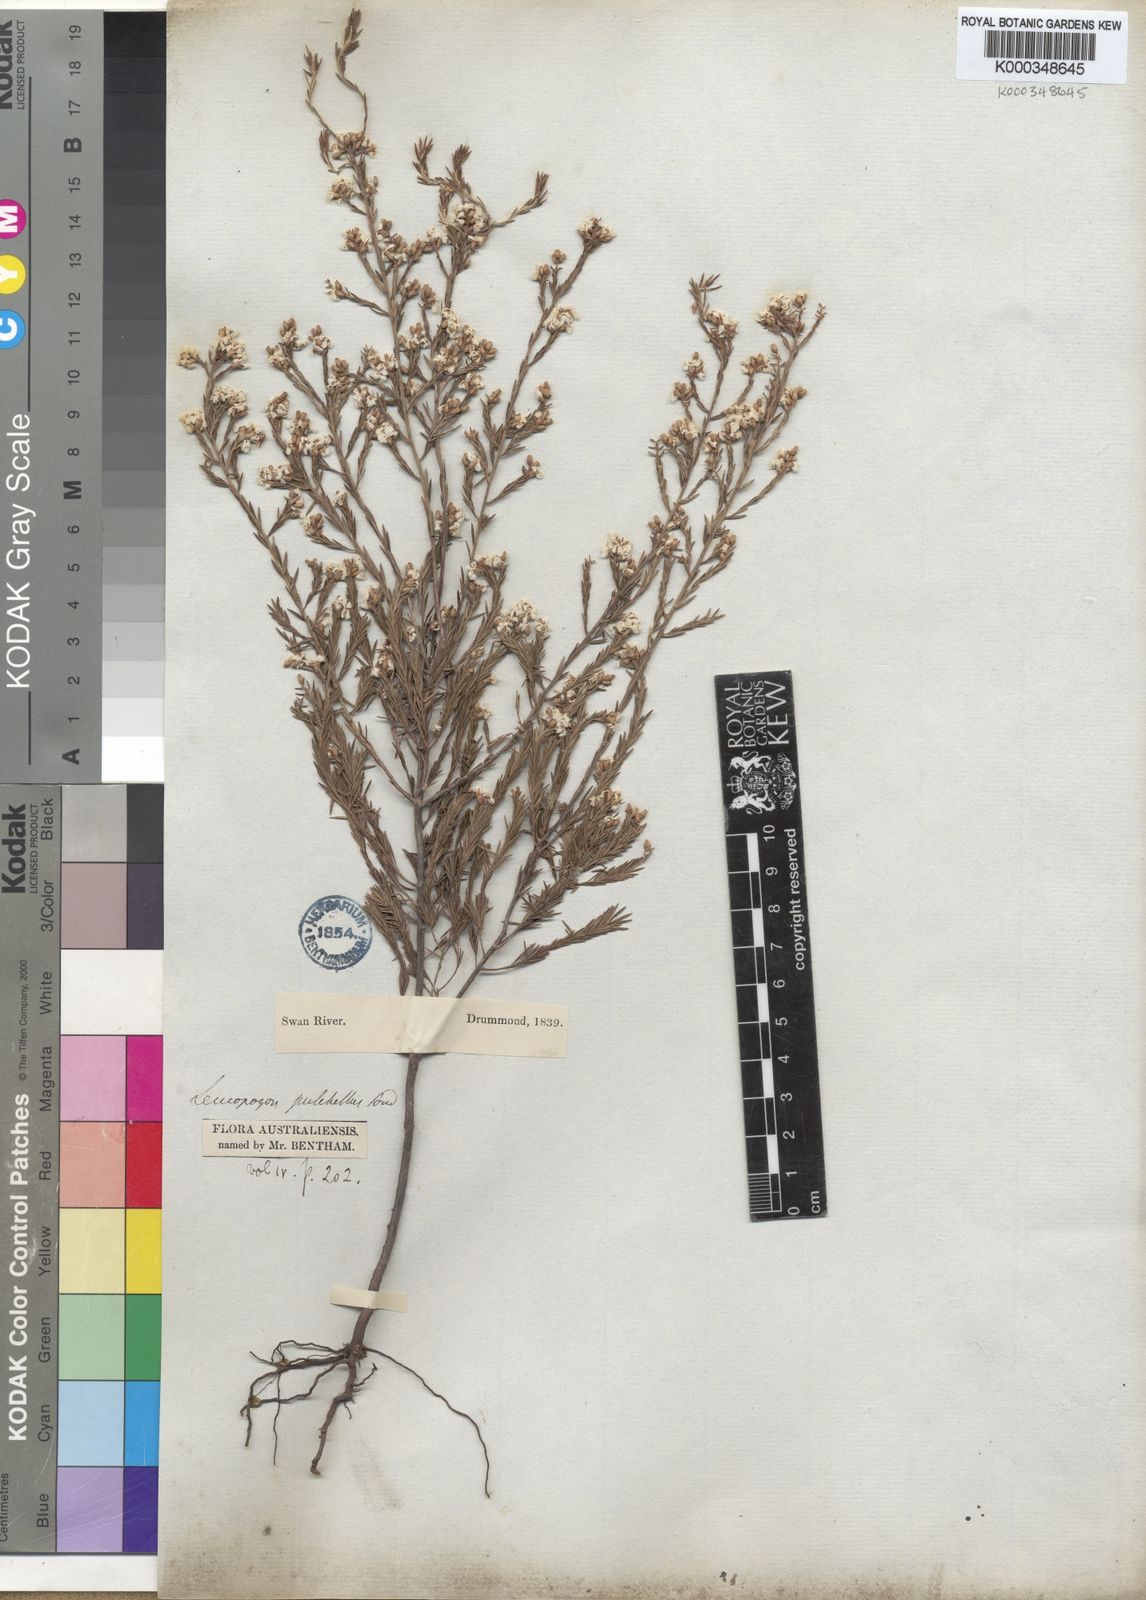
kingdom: Plantae
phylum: Tracheophyta
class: Magnoliopsida
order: Ericales
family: Ericaceae
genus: Leucopogon
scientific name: Leucopogon pulchellus
